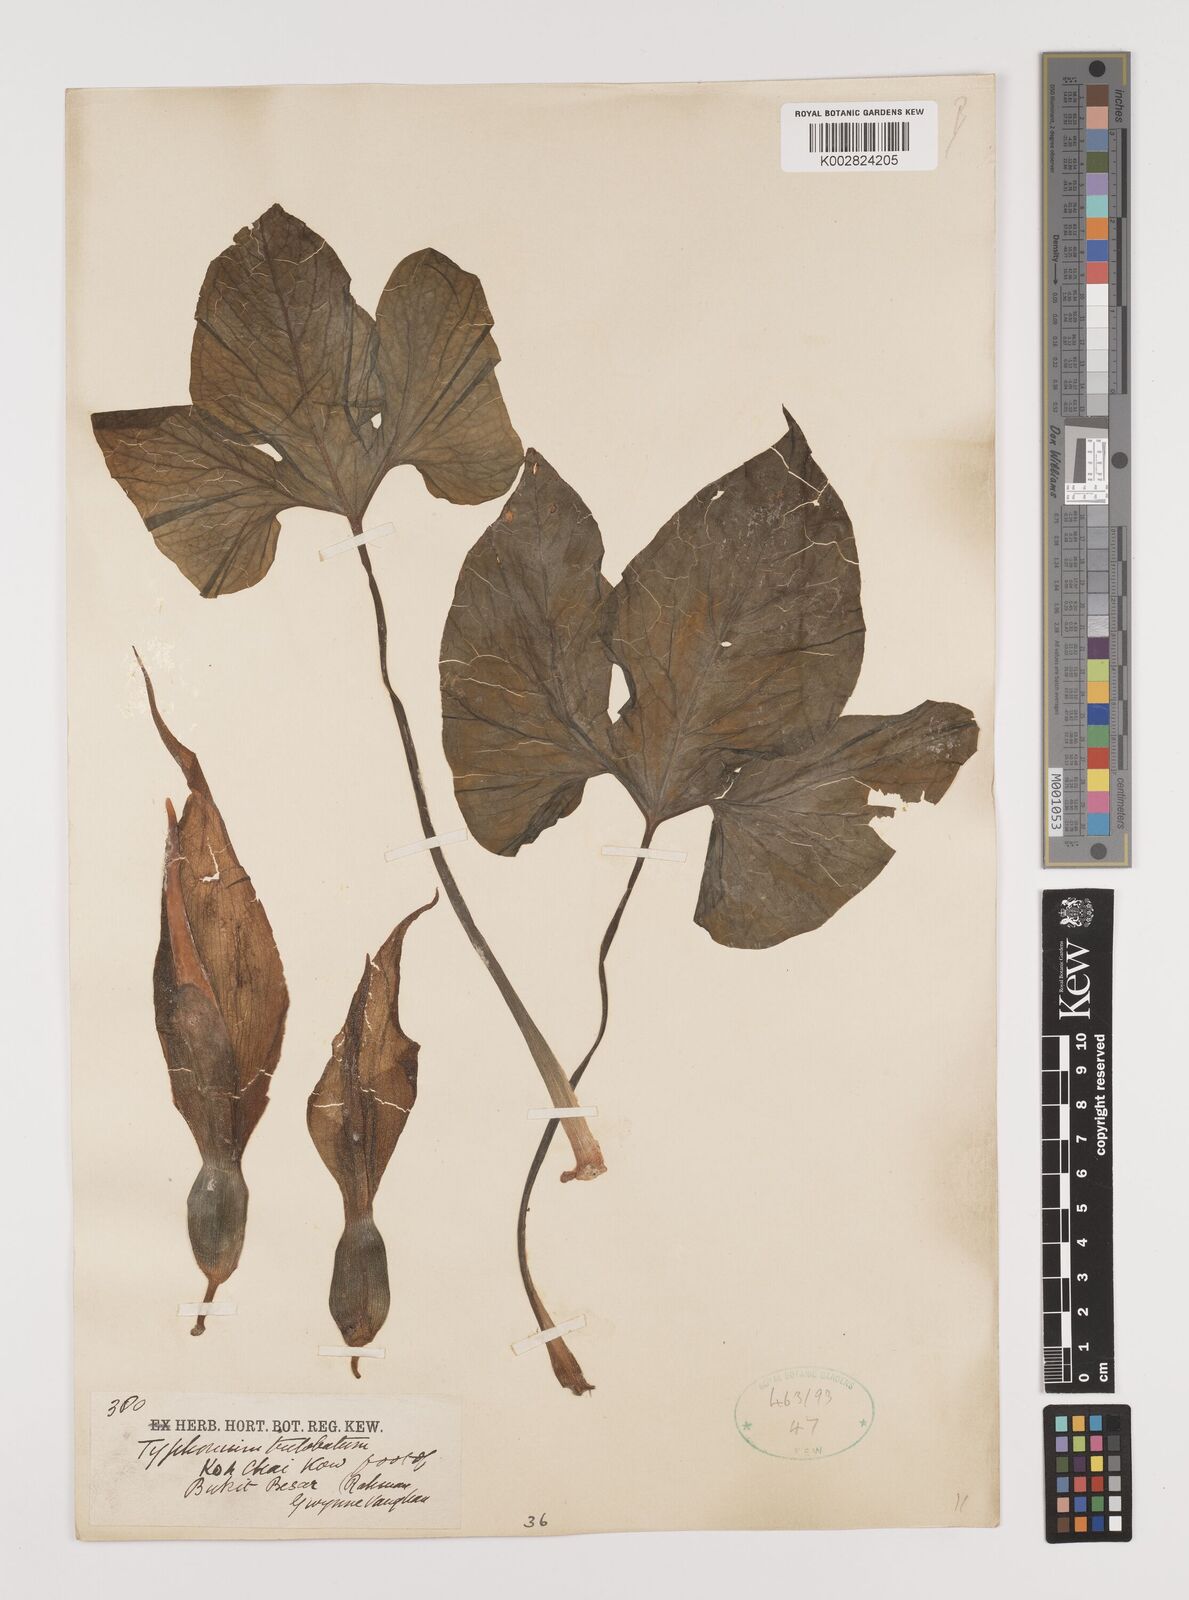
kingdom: Plantae
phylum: Tracheophyta
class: Liliopsida
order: Alismatales
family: Araceae
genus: Typhonium
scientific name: Typhonium trilobatum
